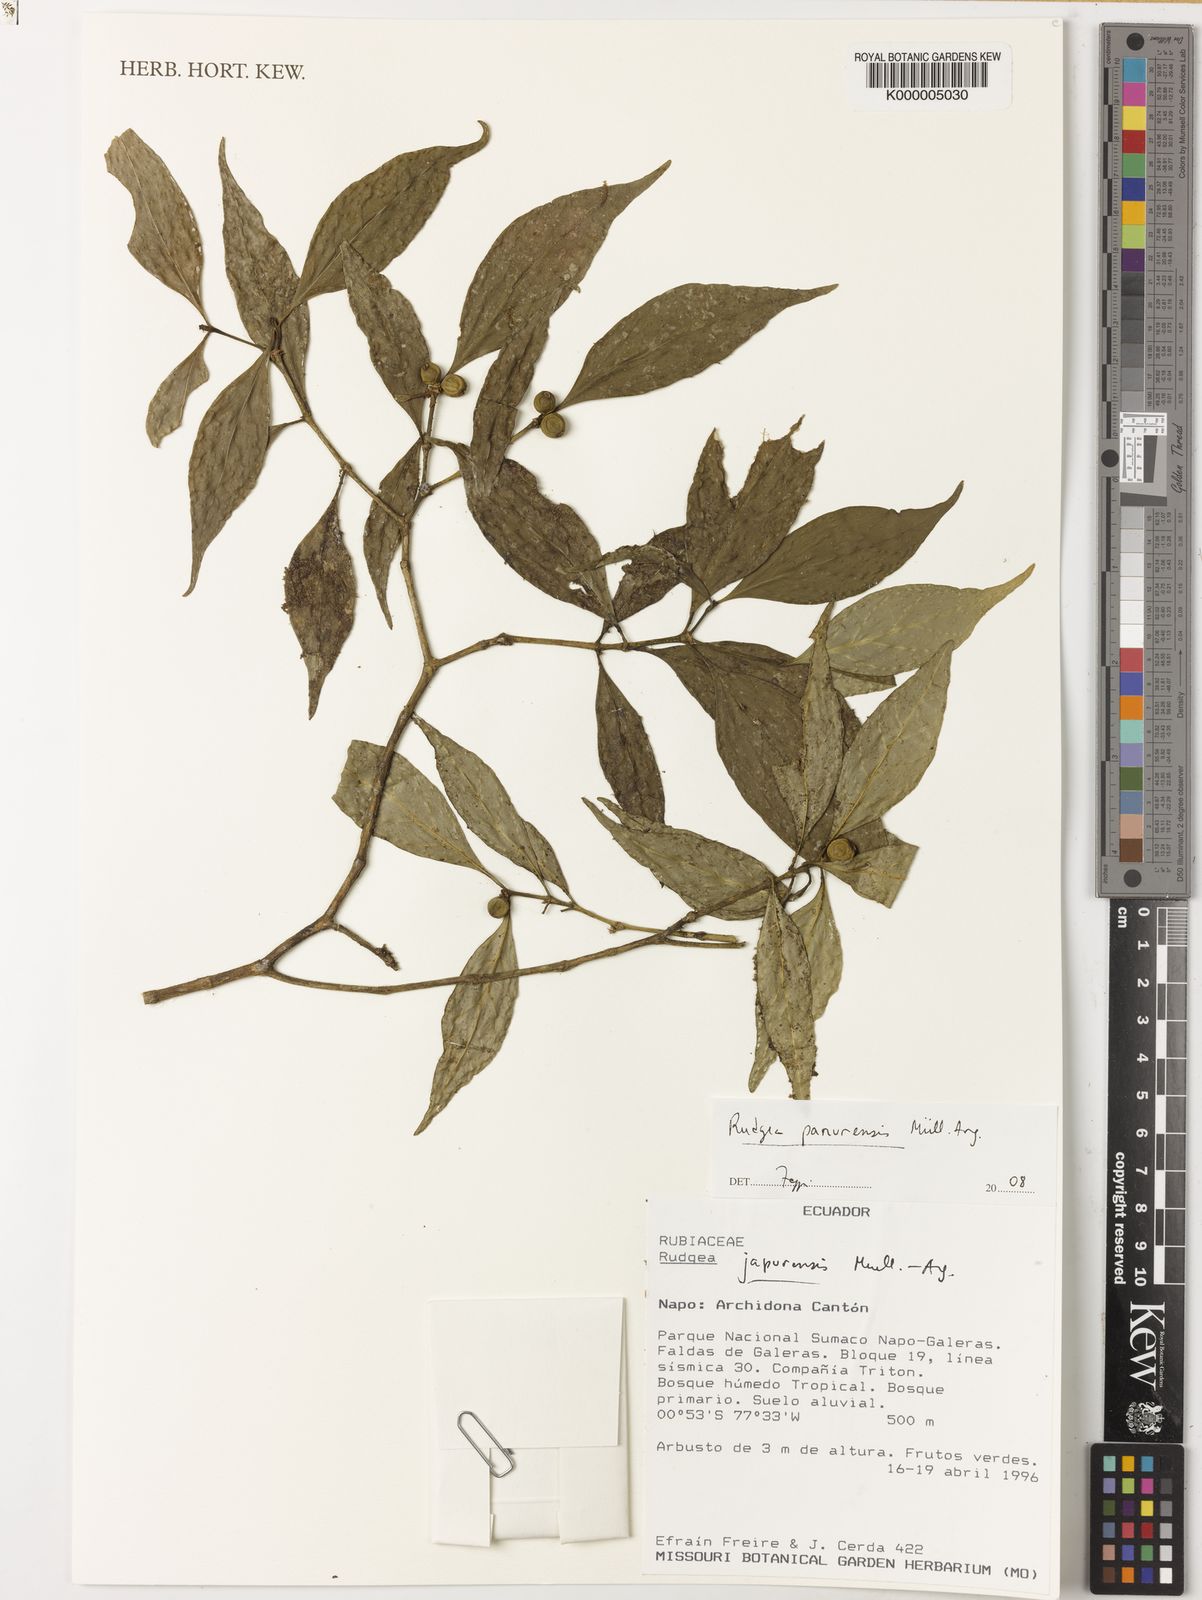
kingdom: Plantae
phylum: Tracheophyta
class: Magnoliopsida
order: Gentianales
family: Rubiaceae
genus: Rudgea
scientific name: Rudgea panurensis
